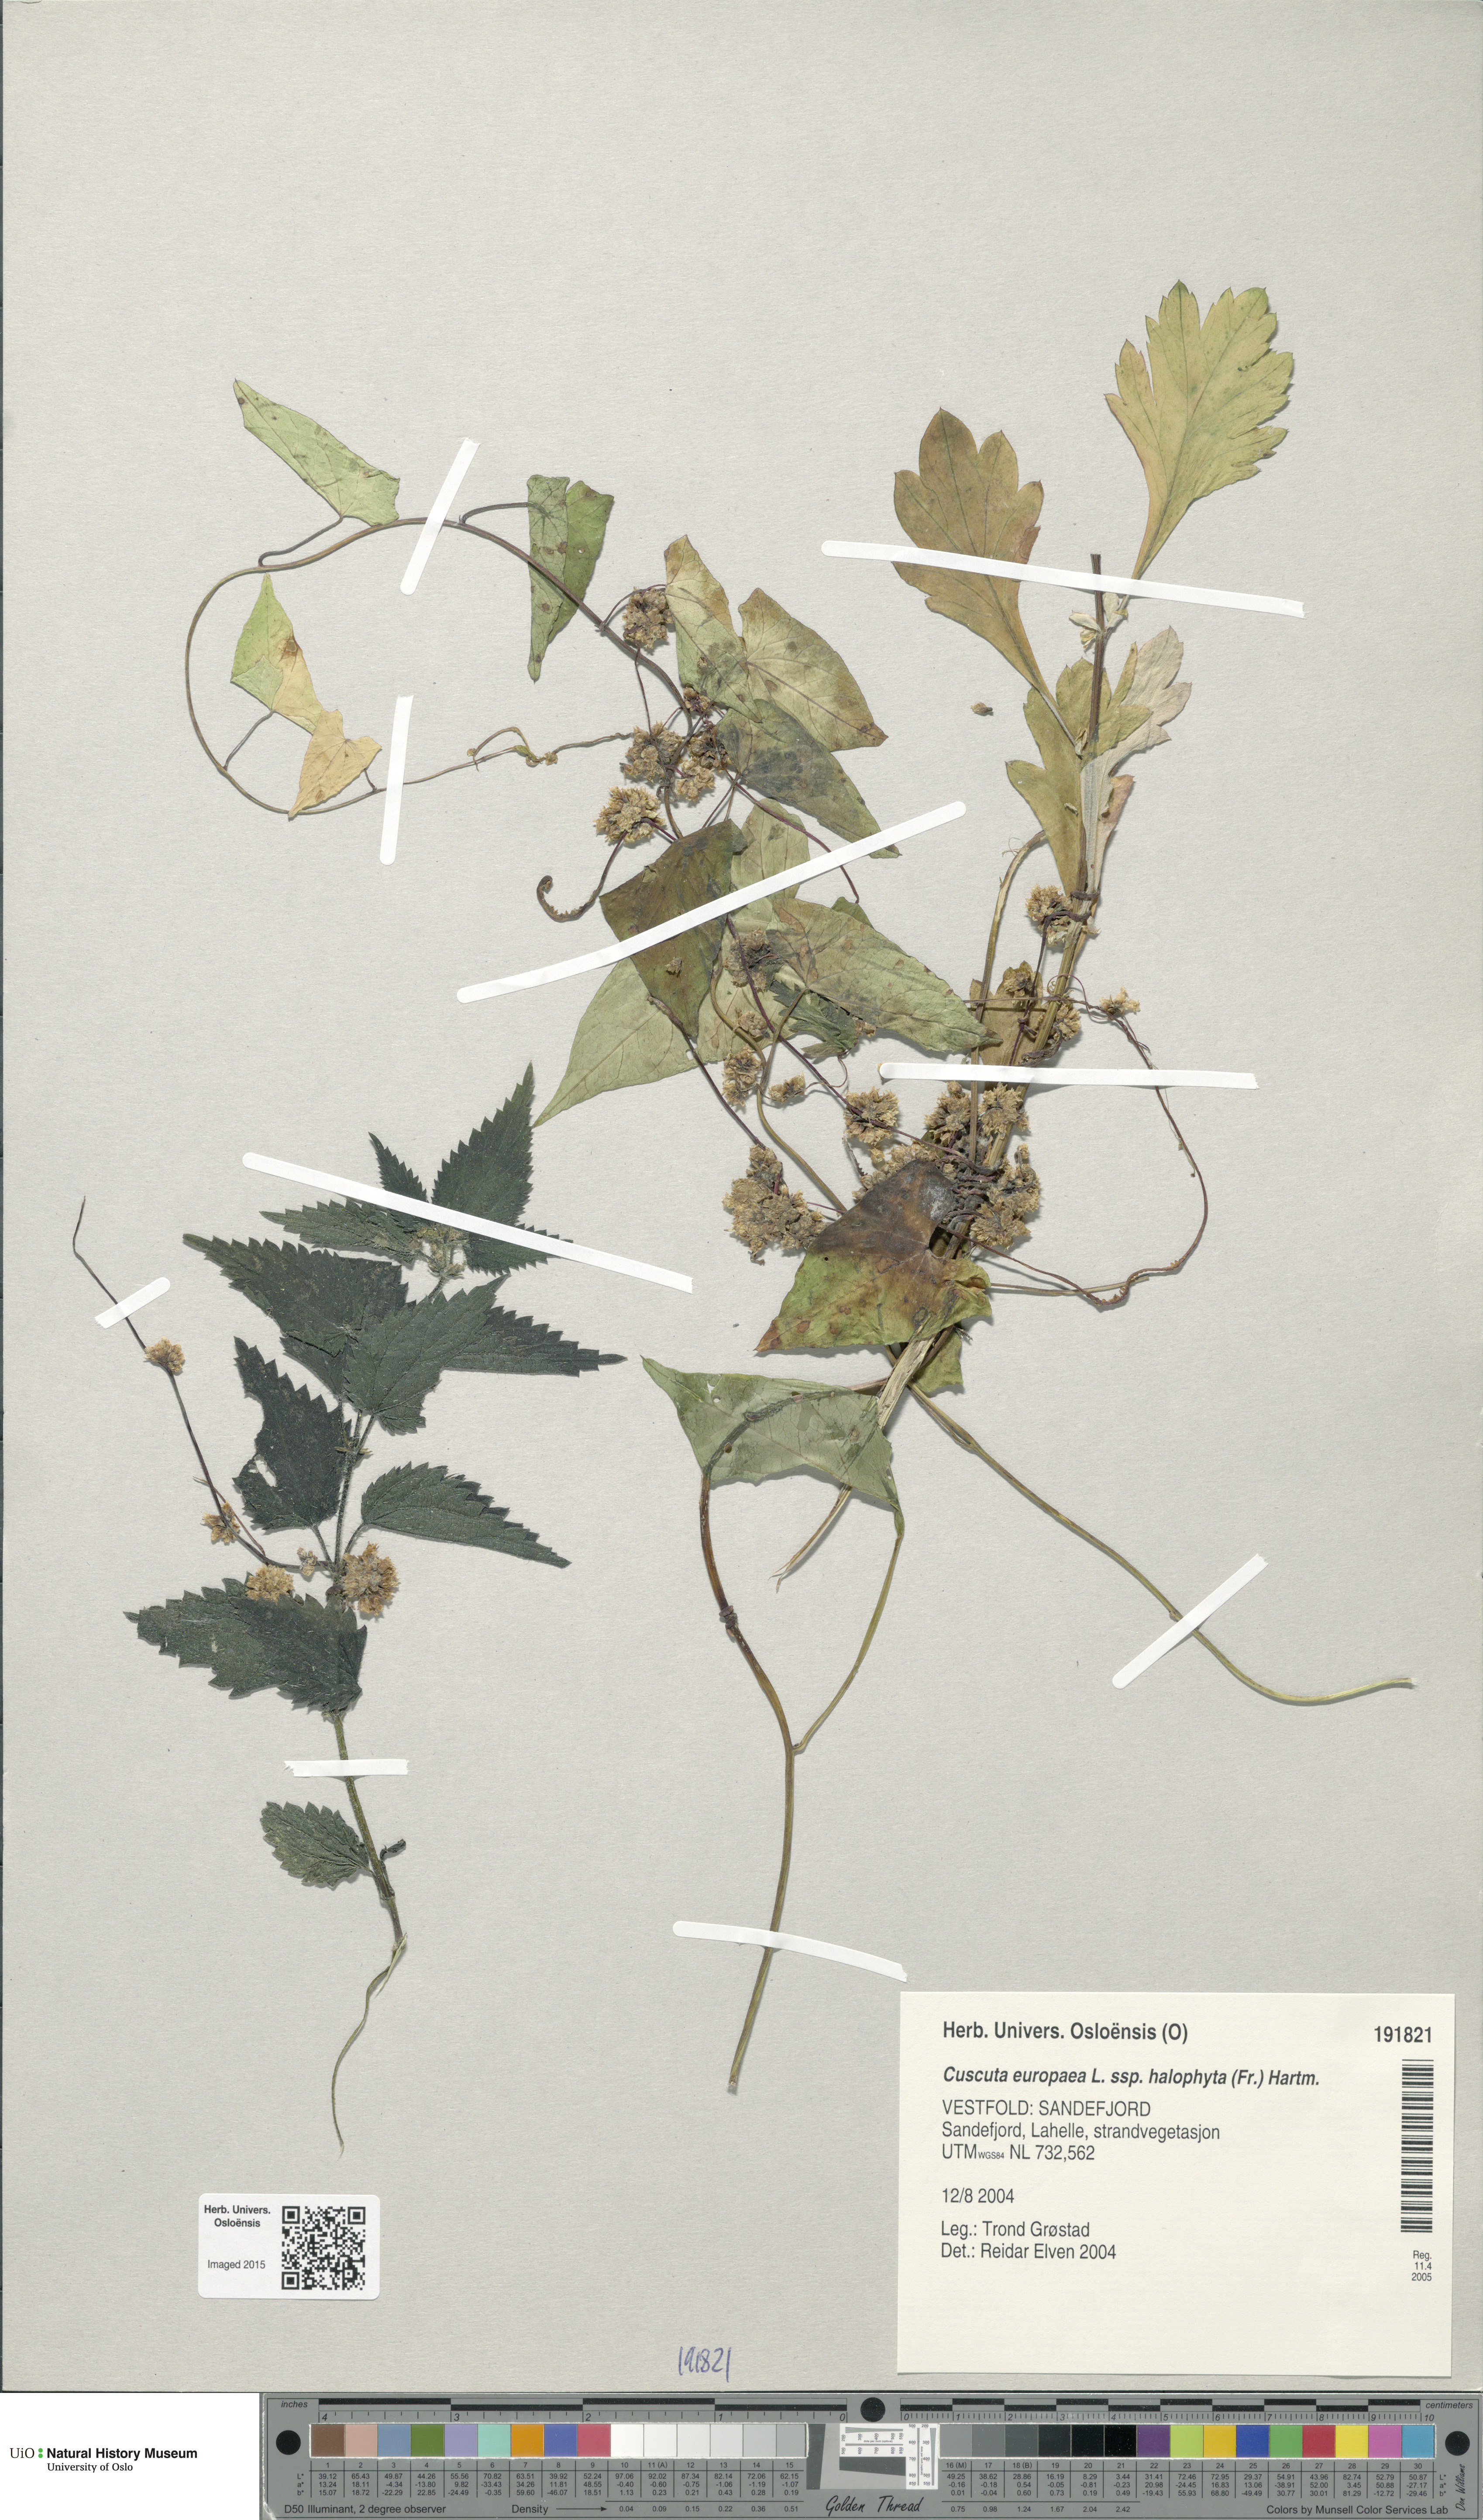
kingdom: Plantae
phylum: Tracheophyta
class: Magnoliopsida
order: Solanales
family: Convolvulaceae
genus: Cuscuta
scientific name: Cuscuta europaea
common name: Greater dodder
